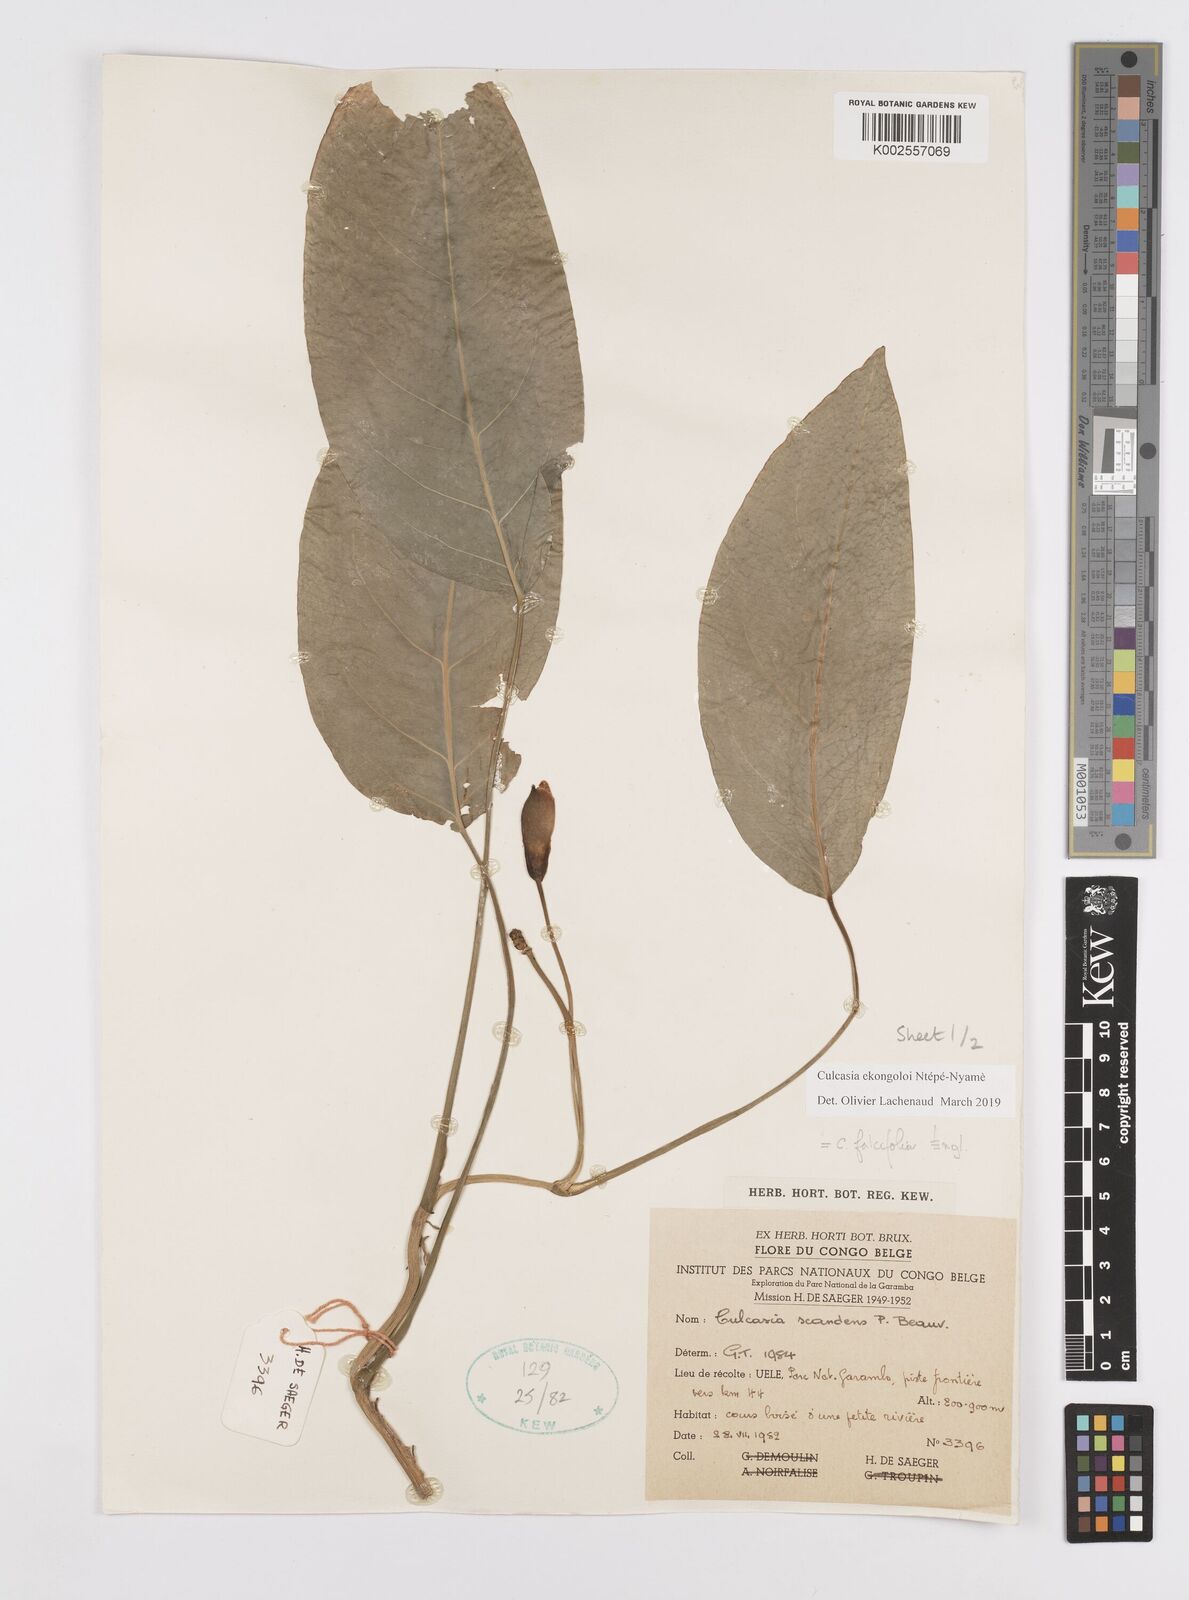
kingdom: Plantae
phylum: Tracheophyta
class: Liliopsida
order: Alismatales
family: Araceae
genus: Culcasia
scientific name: Culcasia ekongoloi
